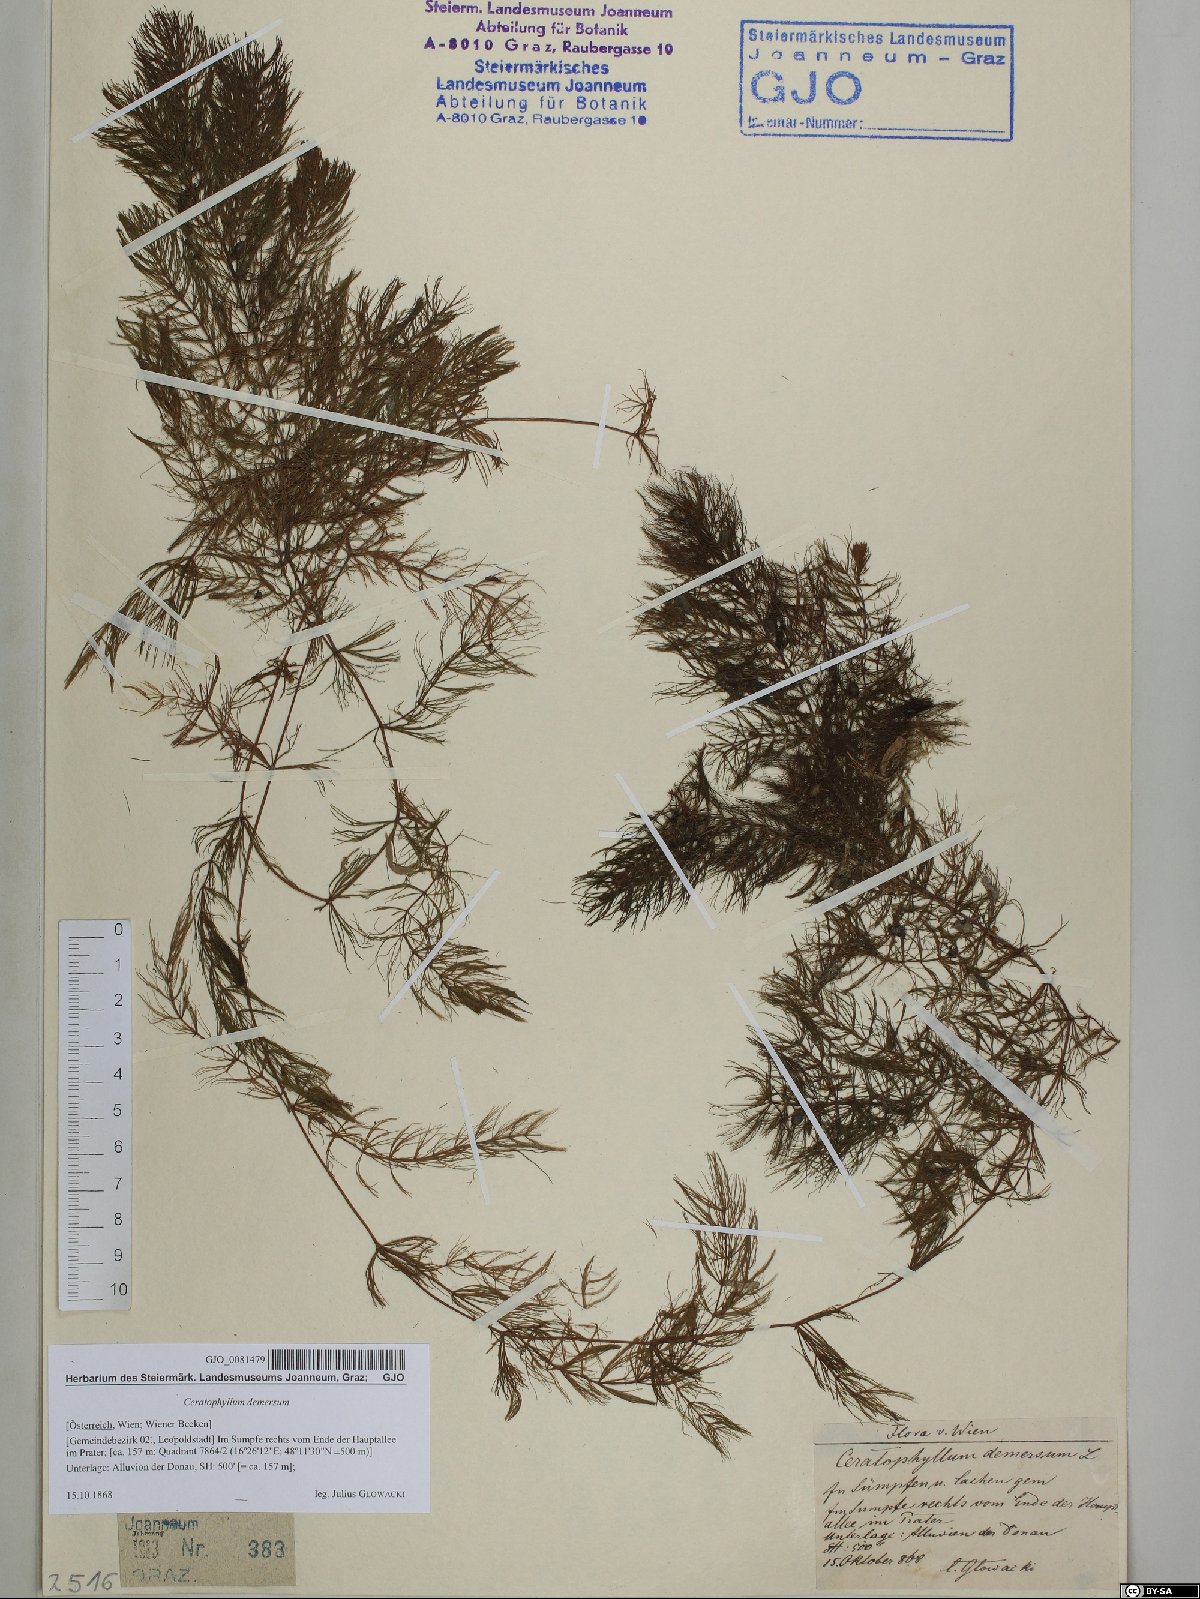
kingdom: Plantae
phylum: Tracheophyta
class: Magnoliopsida
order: Ceratophyllales
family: Ceratophyllaceae
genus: Ceratophyllum
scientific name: Ceratophyllum demersum
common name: Rigid hornwort
